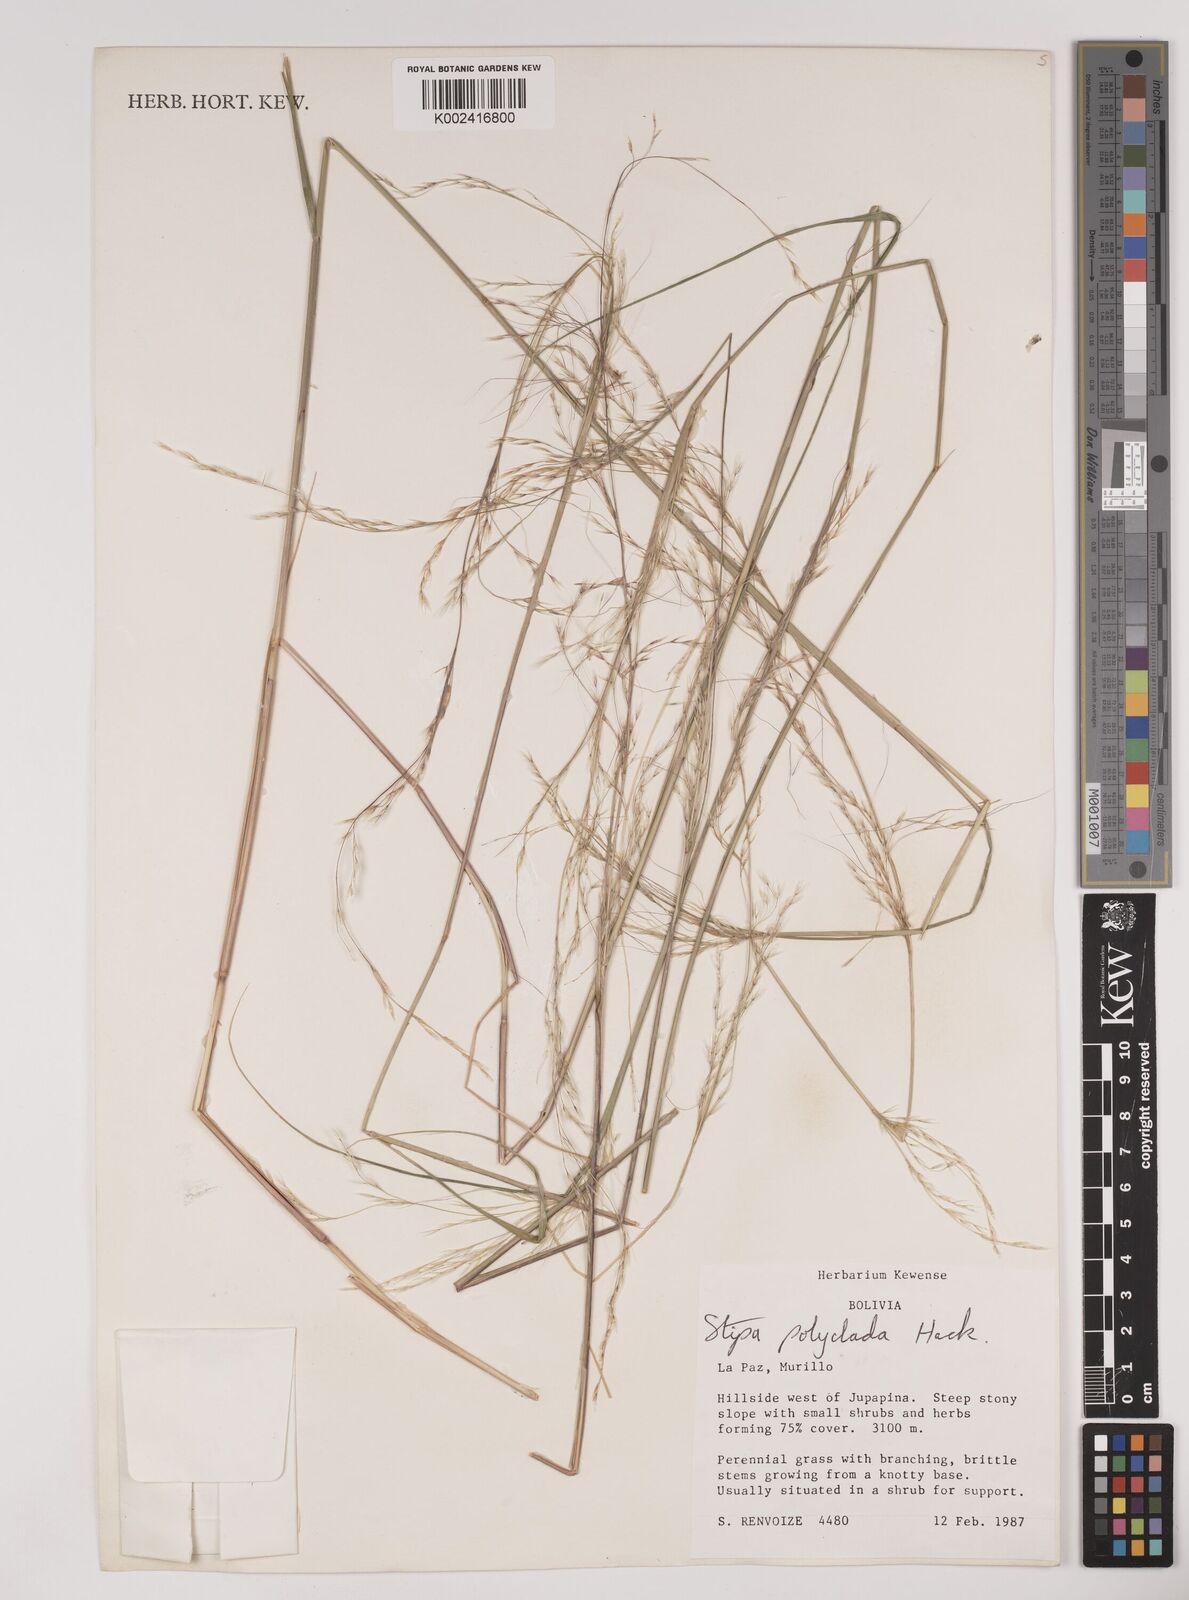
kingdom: Plantae
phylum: Tracheophyta
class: Liliopsida
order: Poales
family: Poaceae
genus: Stipa
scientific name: Stipa illimanica
